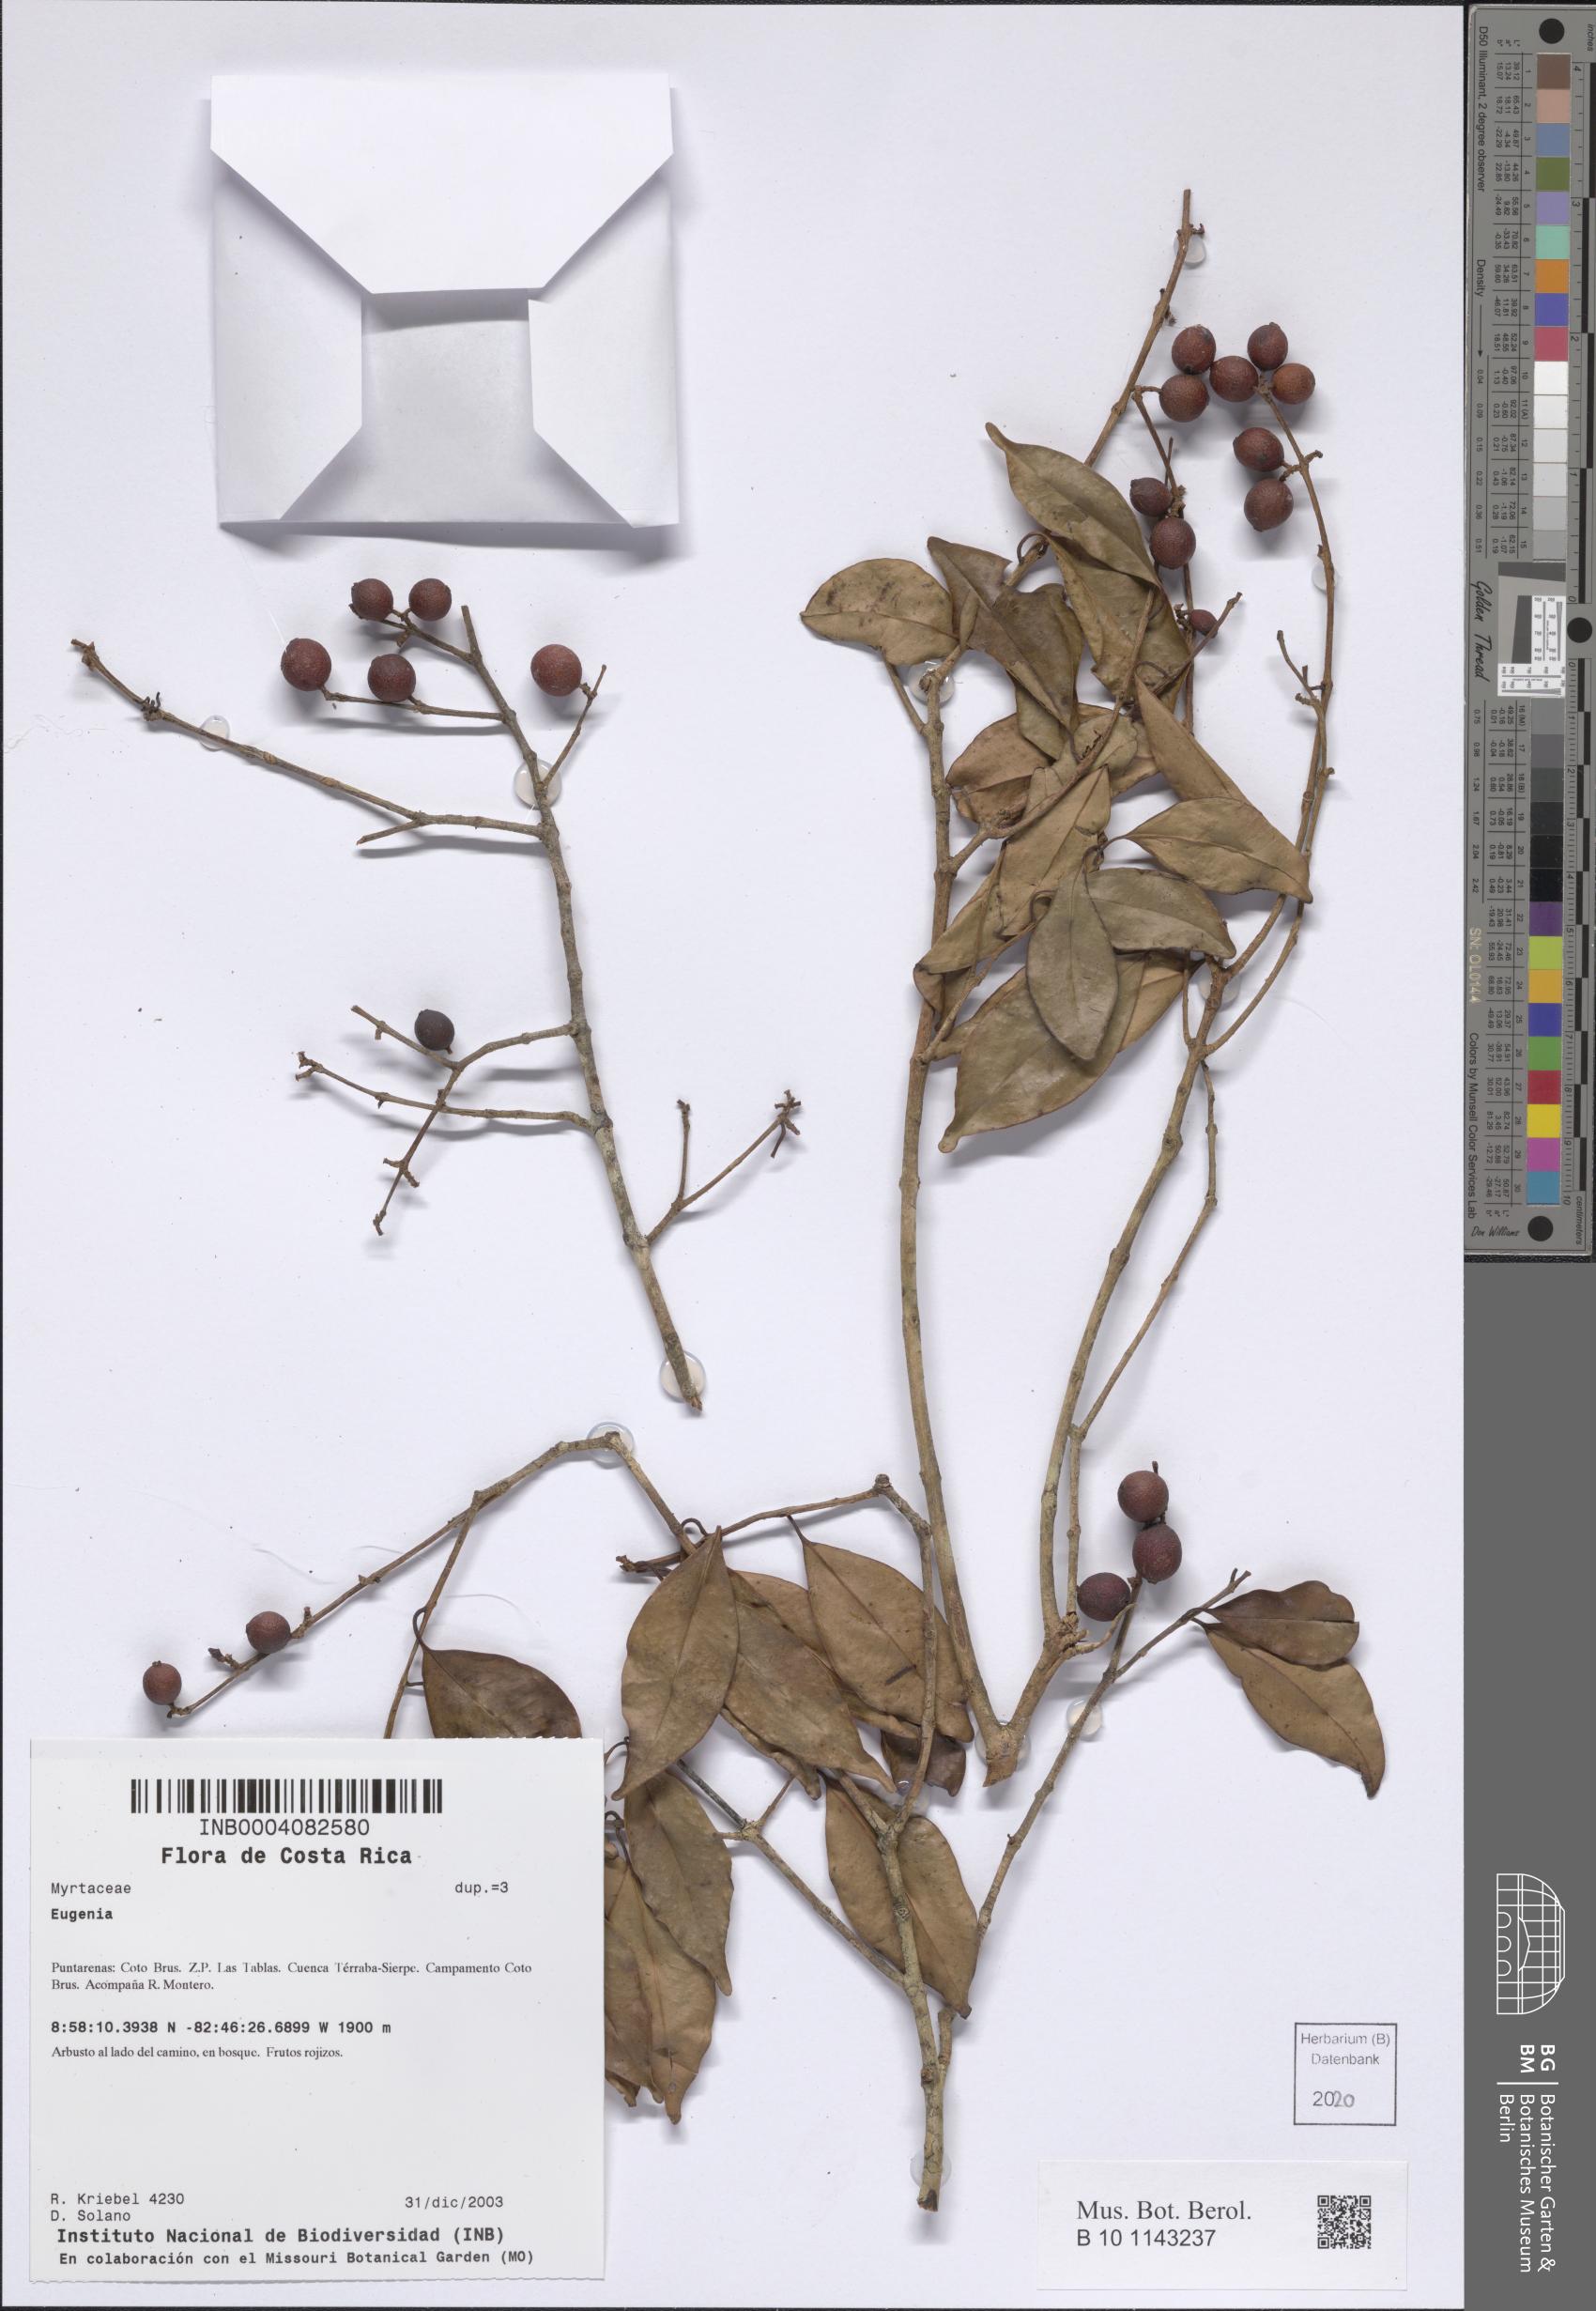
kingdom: Plantae
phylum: Tracheophyta
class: Magnoliopsida
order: Myrtales
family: Myrtaceae
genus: Eugenia
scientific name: Eugenia
